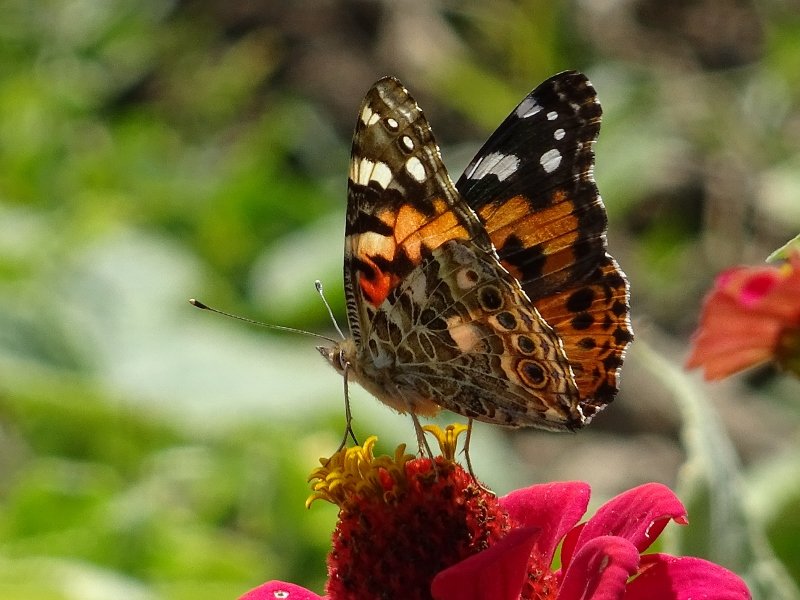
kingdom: Animalia
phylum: Arthropoda
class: Insecta
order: Lepidoptera
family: Nymphalidae
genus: Vanessa
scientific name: Vanessa cardui
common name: Painted Lady
